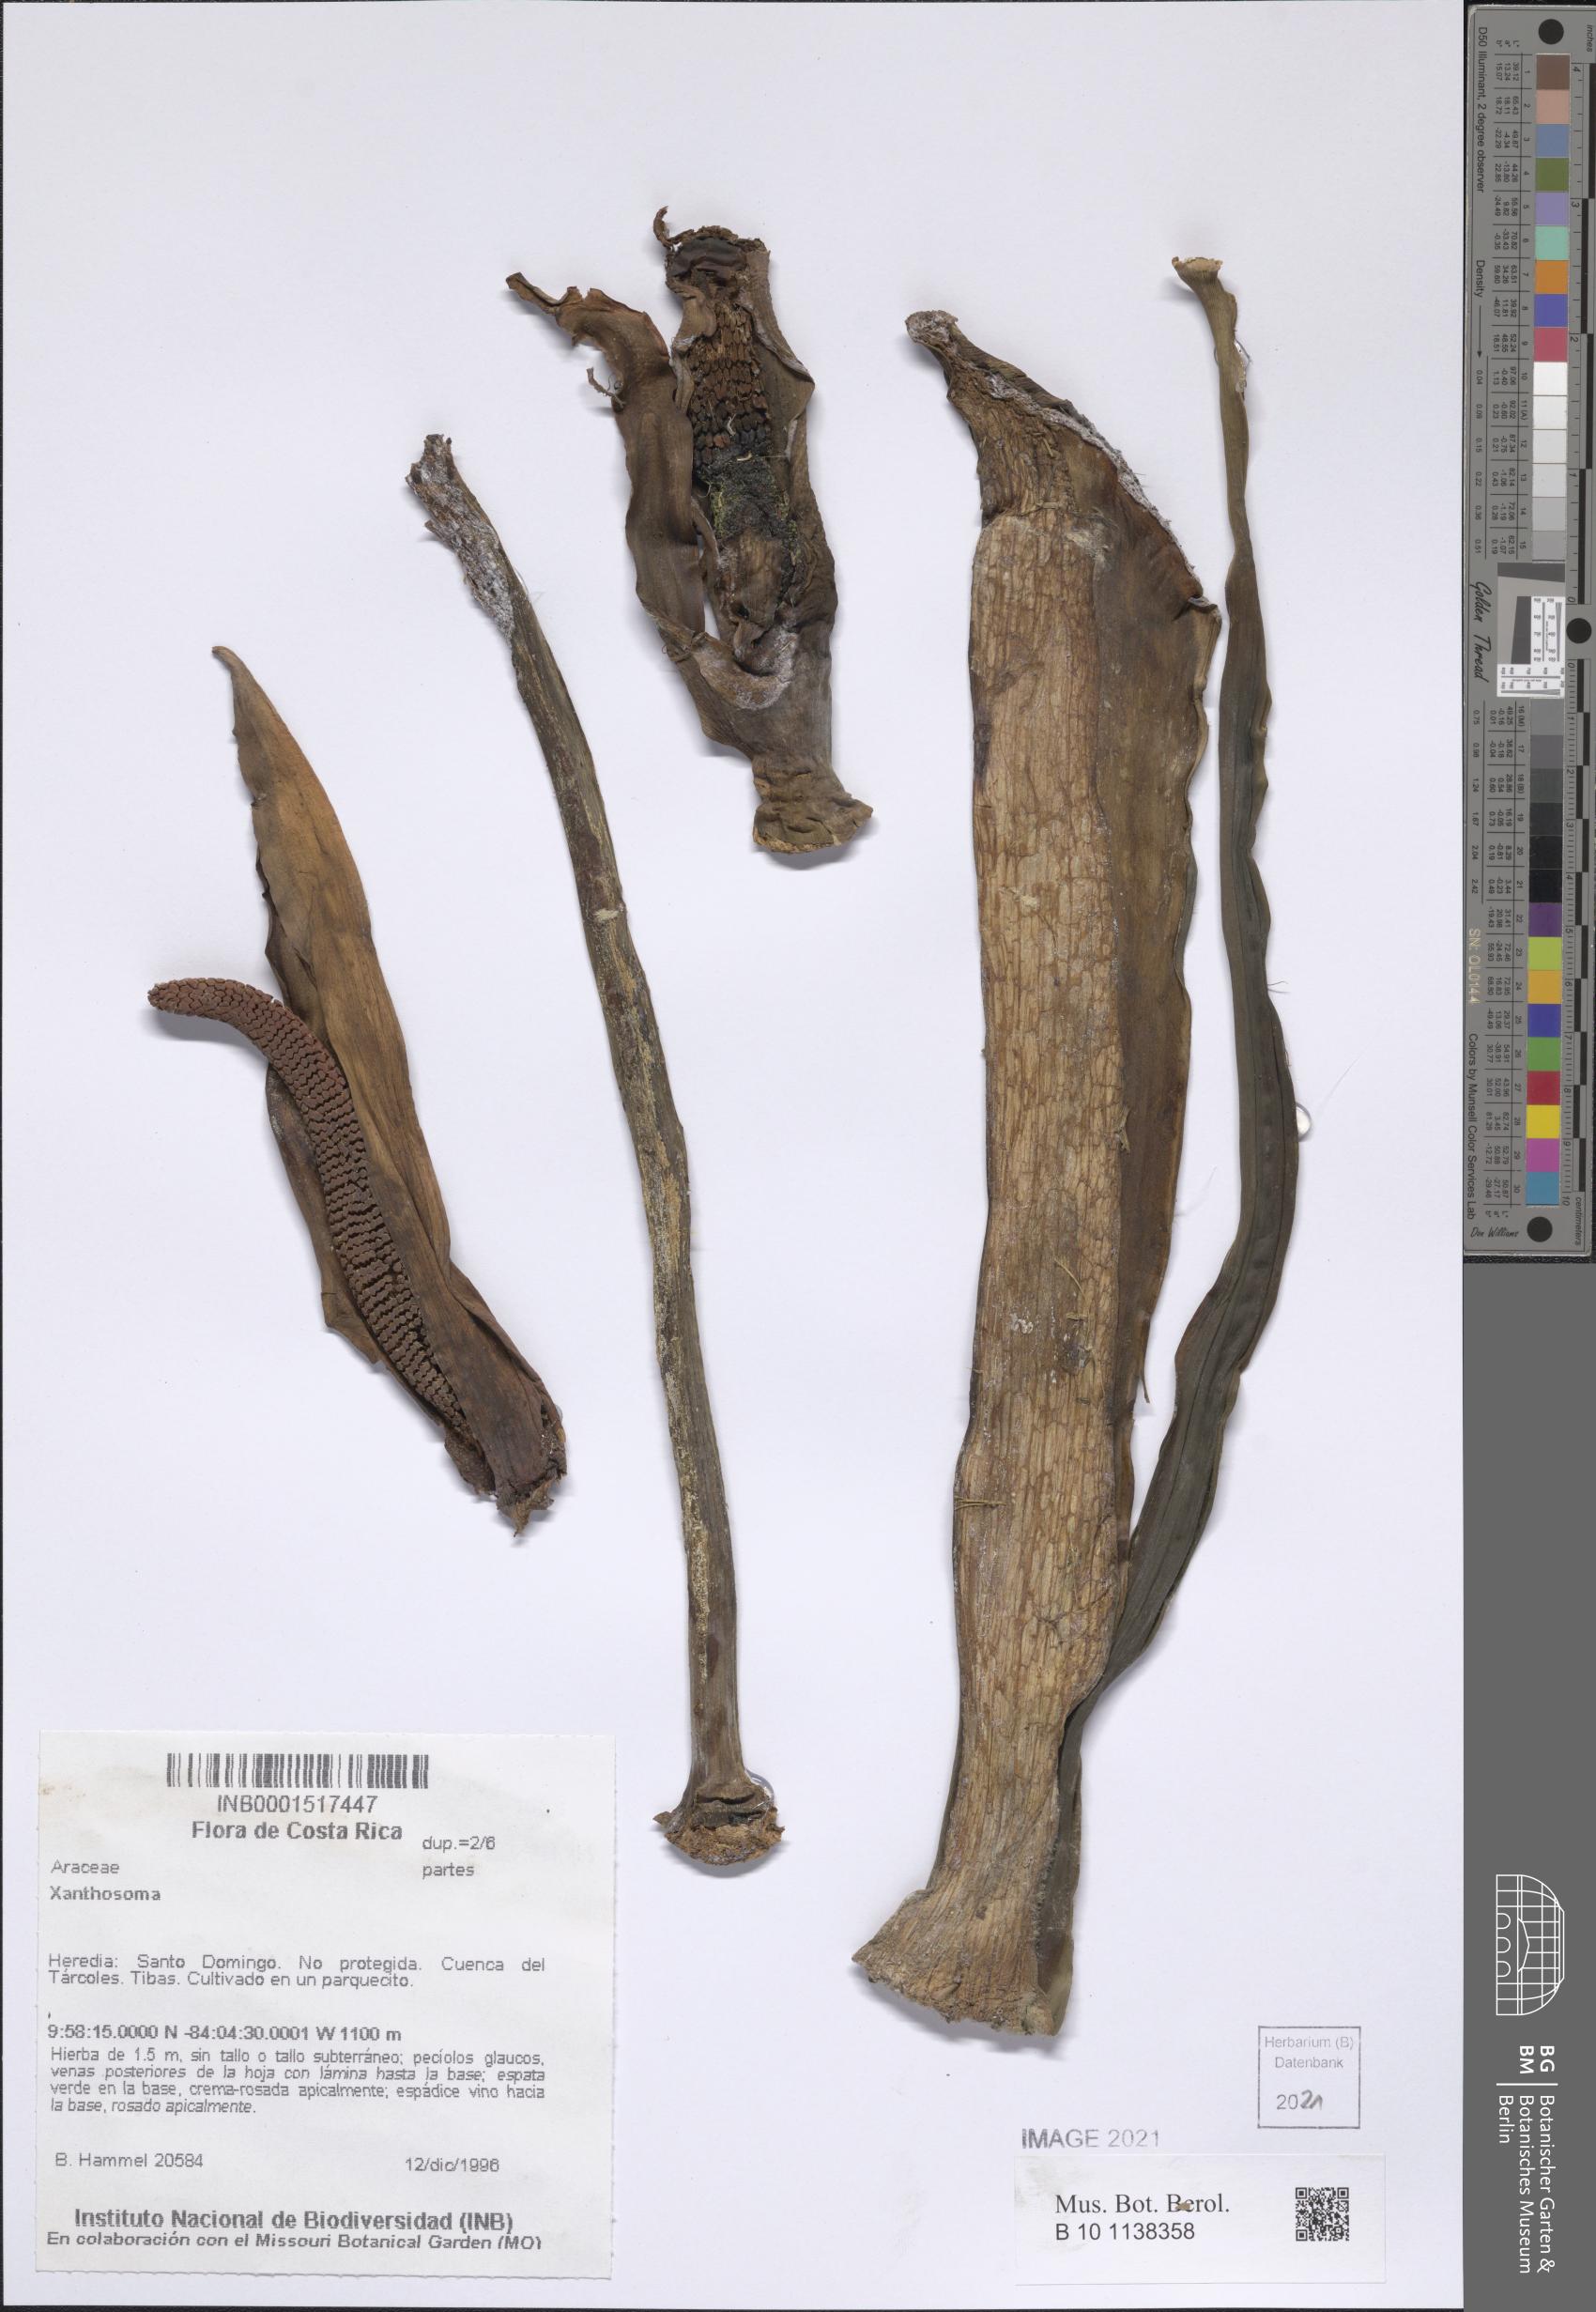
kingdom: Plantae
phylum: Tracheophyta
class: Liliopsida
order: Alismatales
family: Araceae
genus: Xanthosoma
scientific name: Xanthosoma sagittifolium
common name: Arrowleaf elephant's ear
